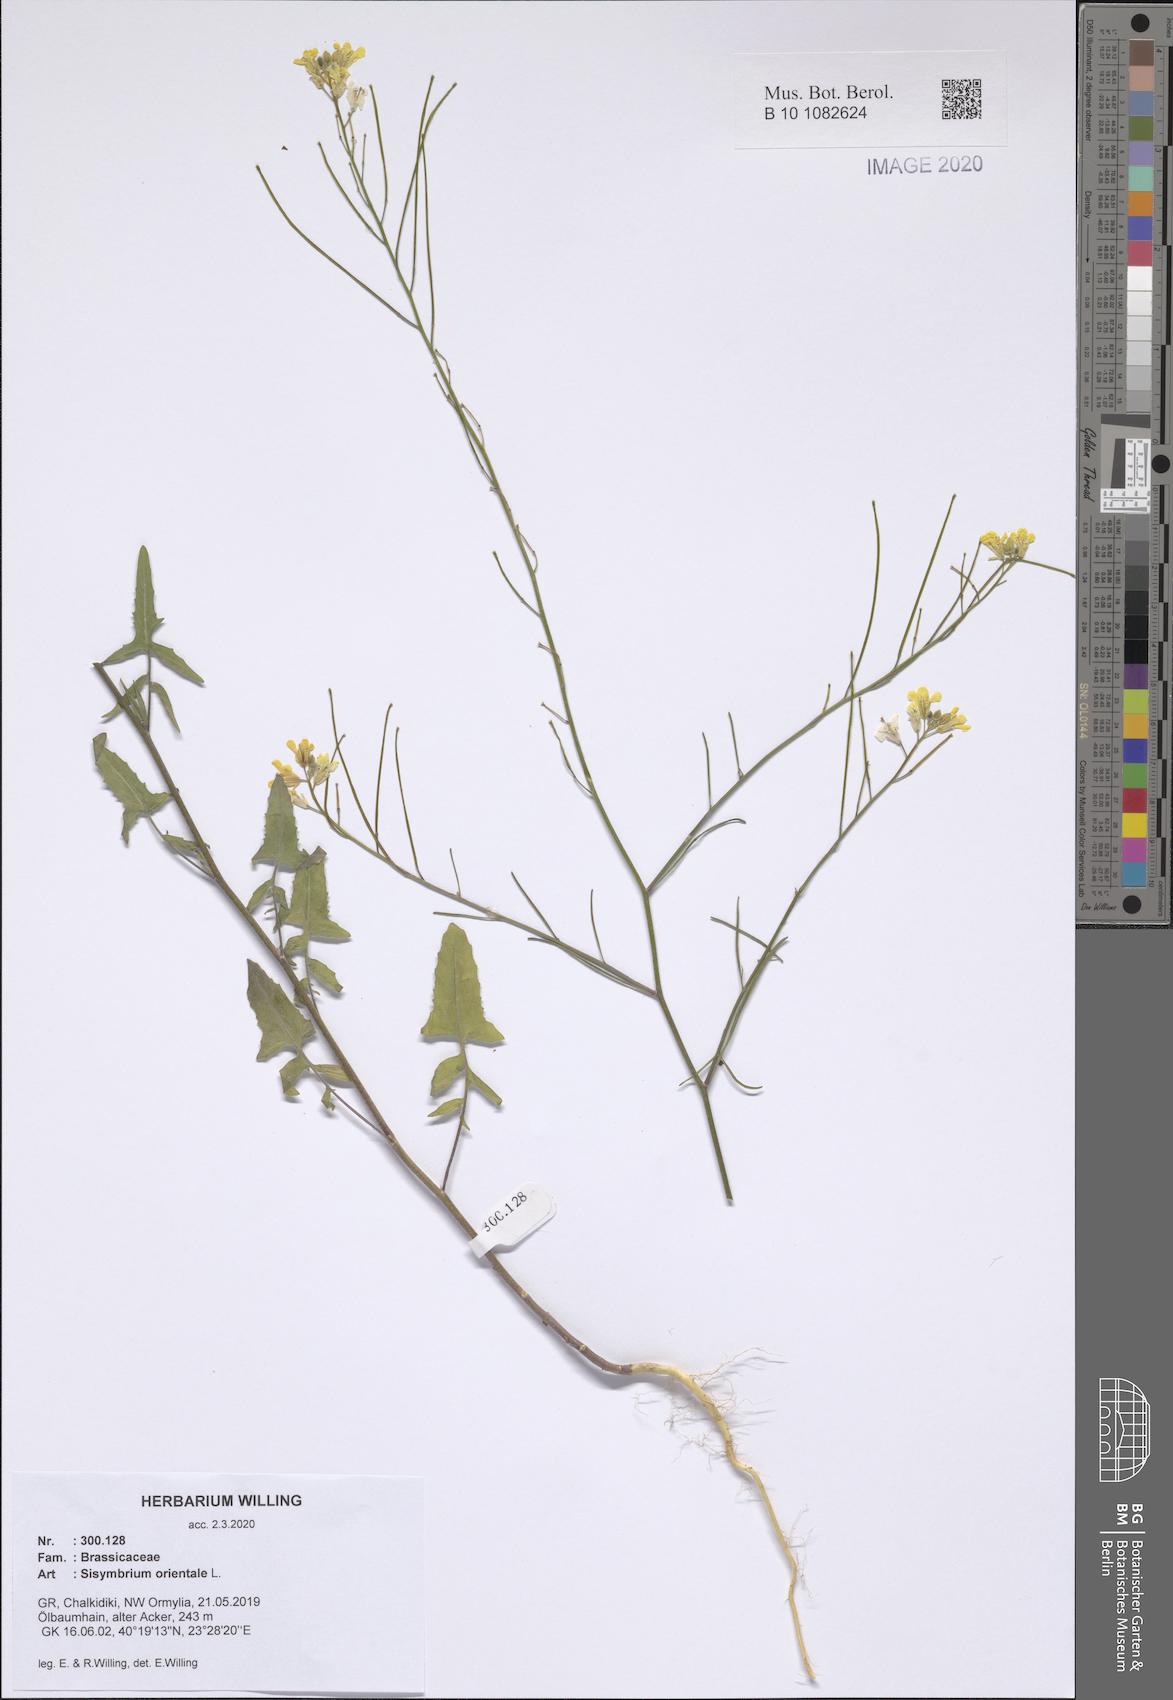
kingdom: Plantae
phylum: Tracheophyta
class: Magnoliopsida
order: Brassicales
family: Brassicaceae
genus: Sisymbrium
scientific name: Sisymbrium orientale
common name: Eastern rocket
